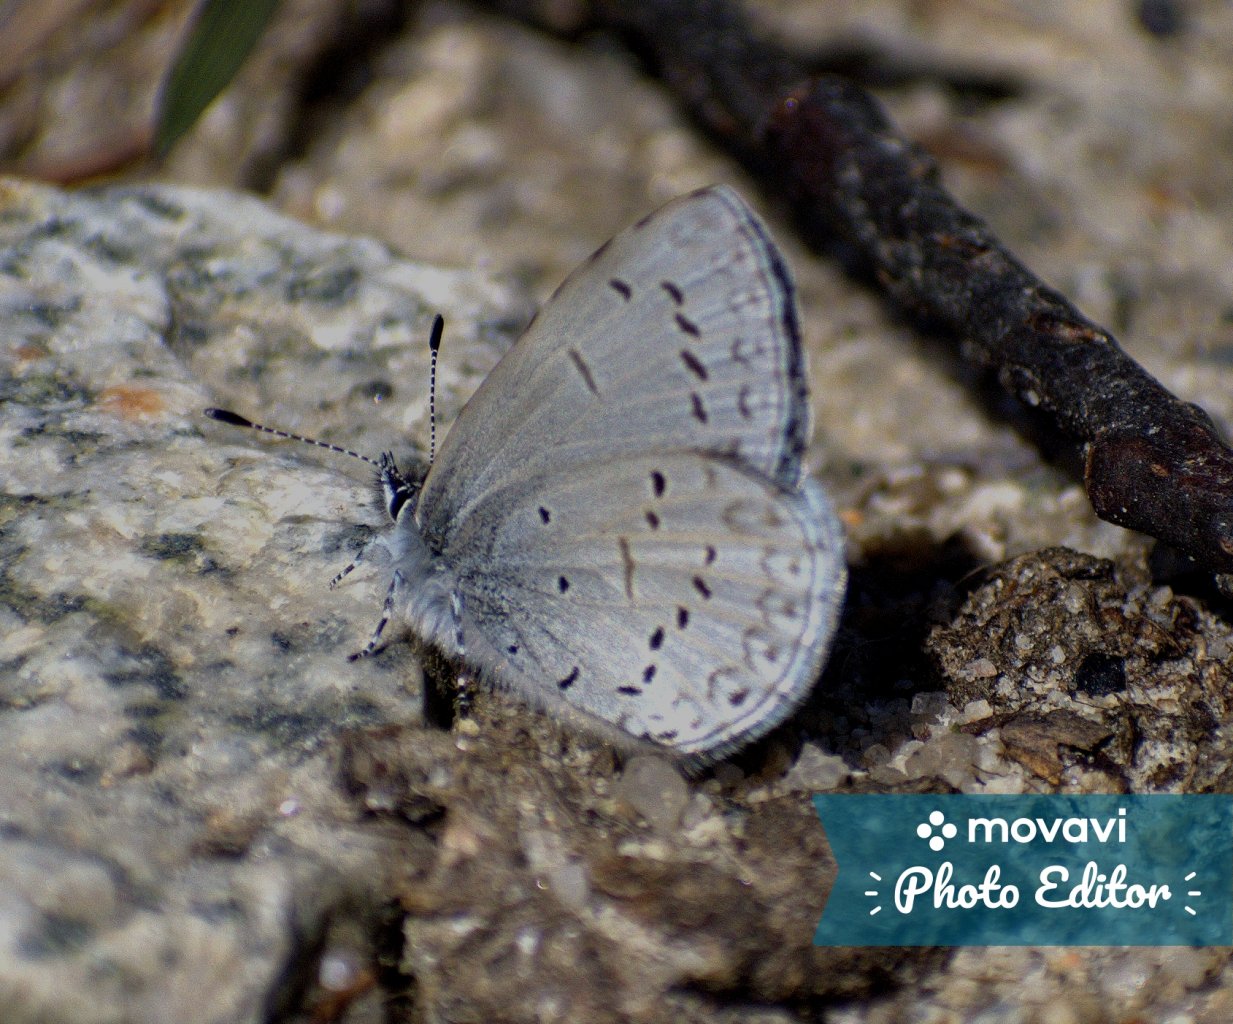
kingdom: Animalia
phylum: Arthropoda
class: Insecta
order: Lepidoptera
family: Lycaenidae
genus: Celastrina
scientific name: Celastrina ladon
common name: Echo Azure
